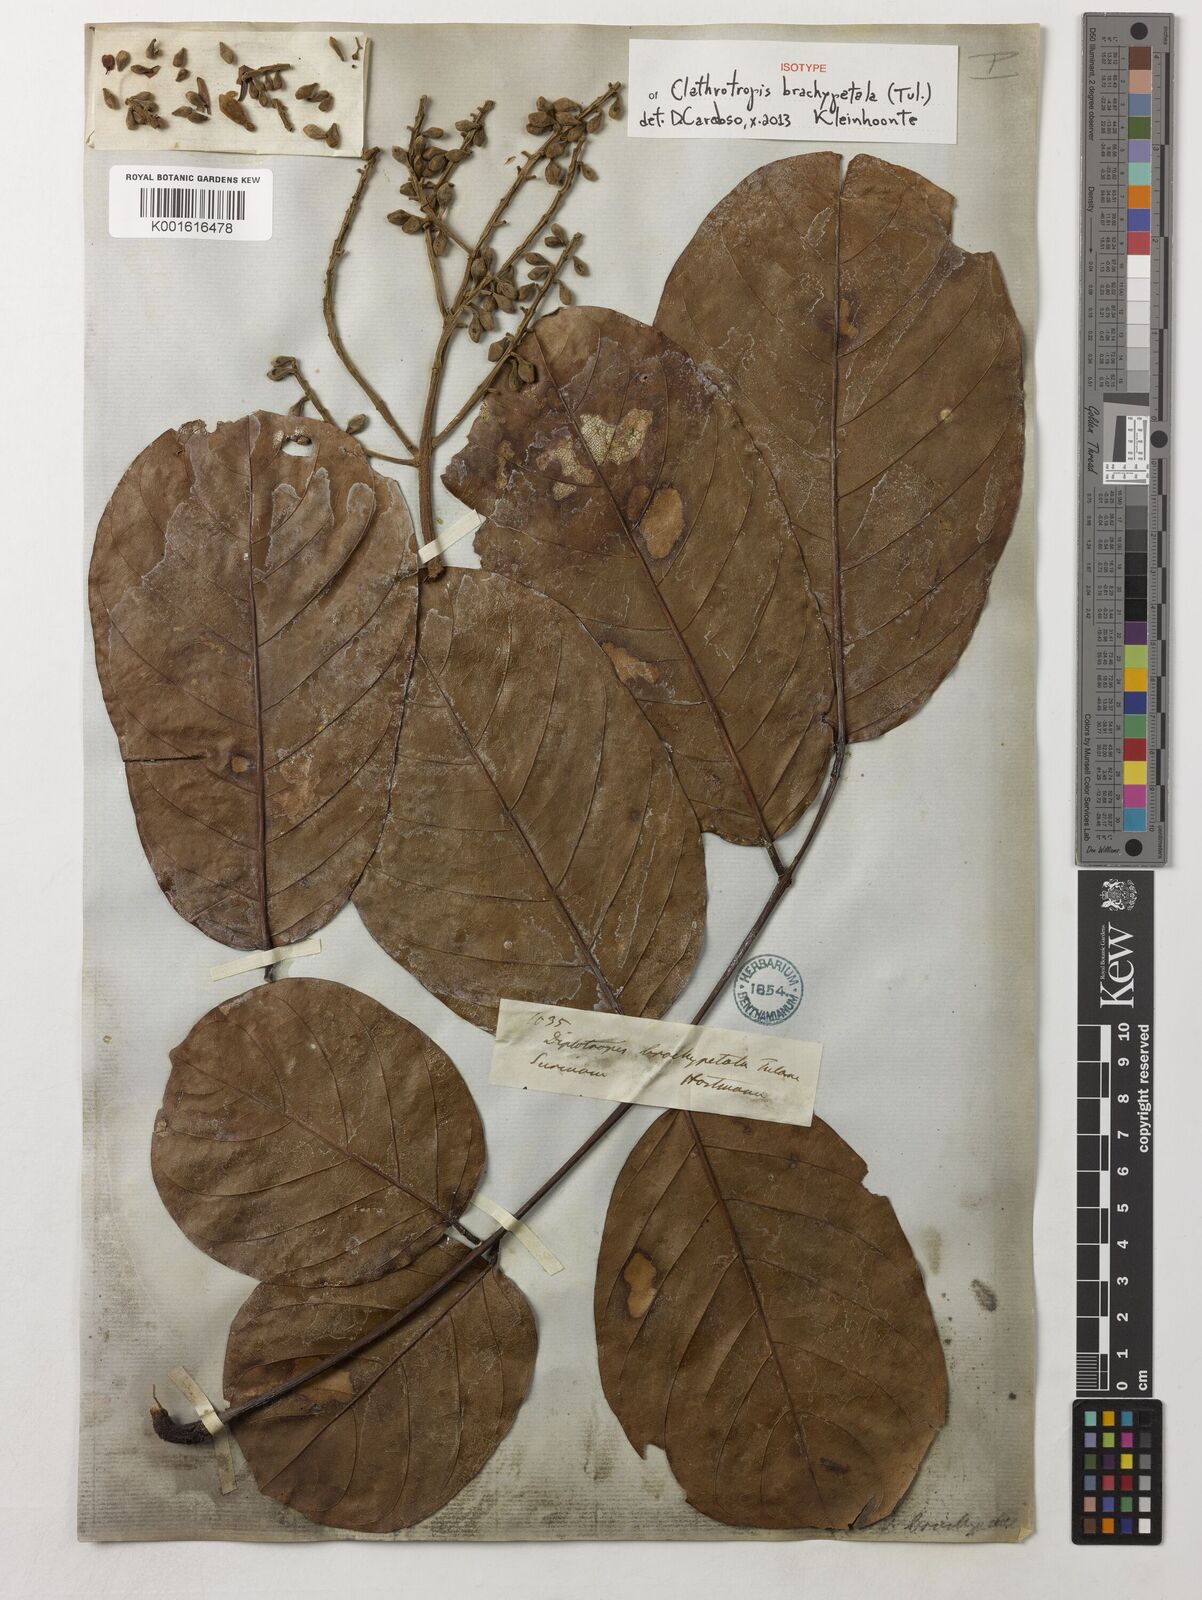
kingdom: Plantae
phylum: Tracheophyta
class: Magnoliopsida
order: Fabales
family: Fabaceae
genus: Clathrotropis
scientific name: Clathrotropis brachypetala
